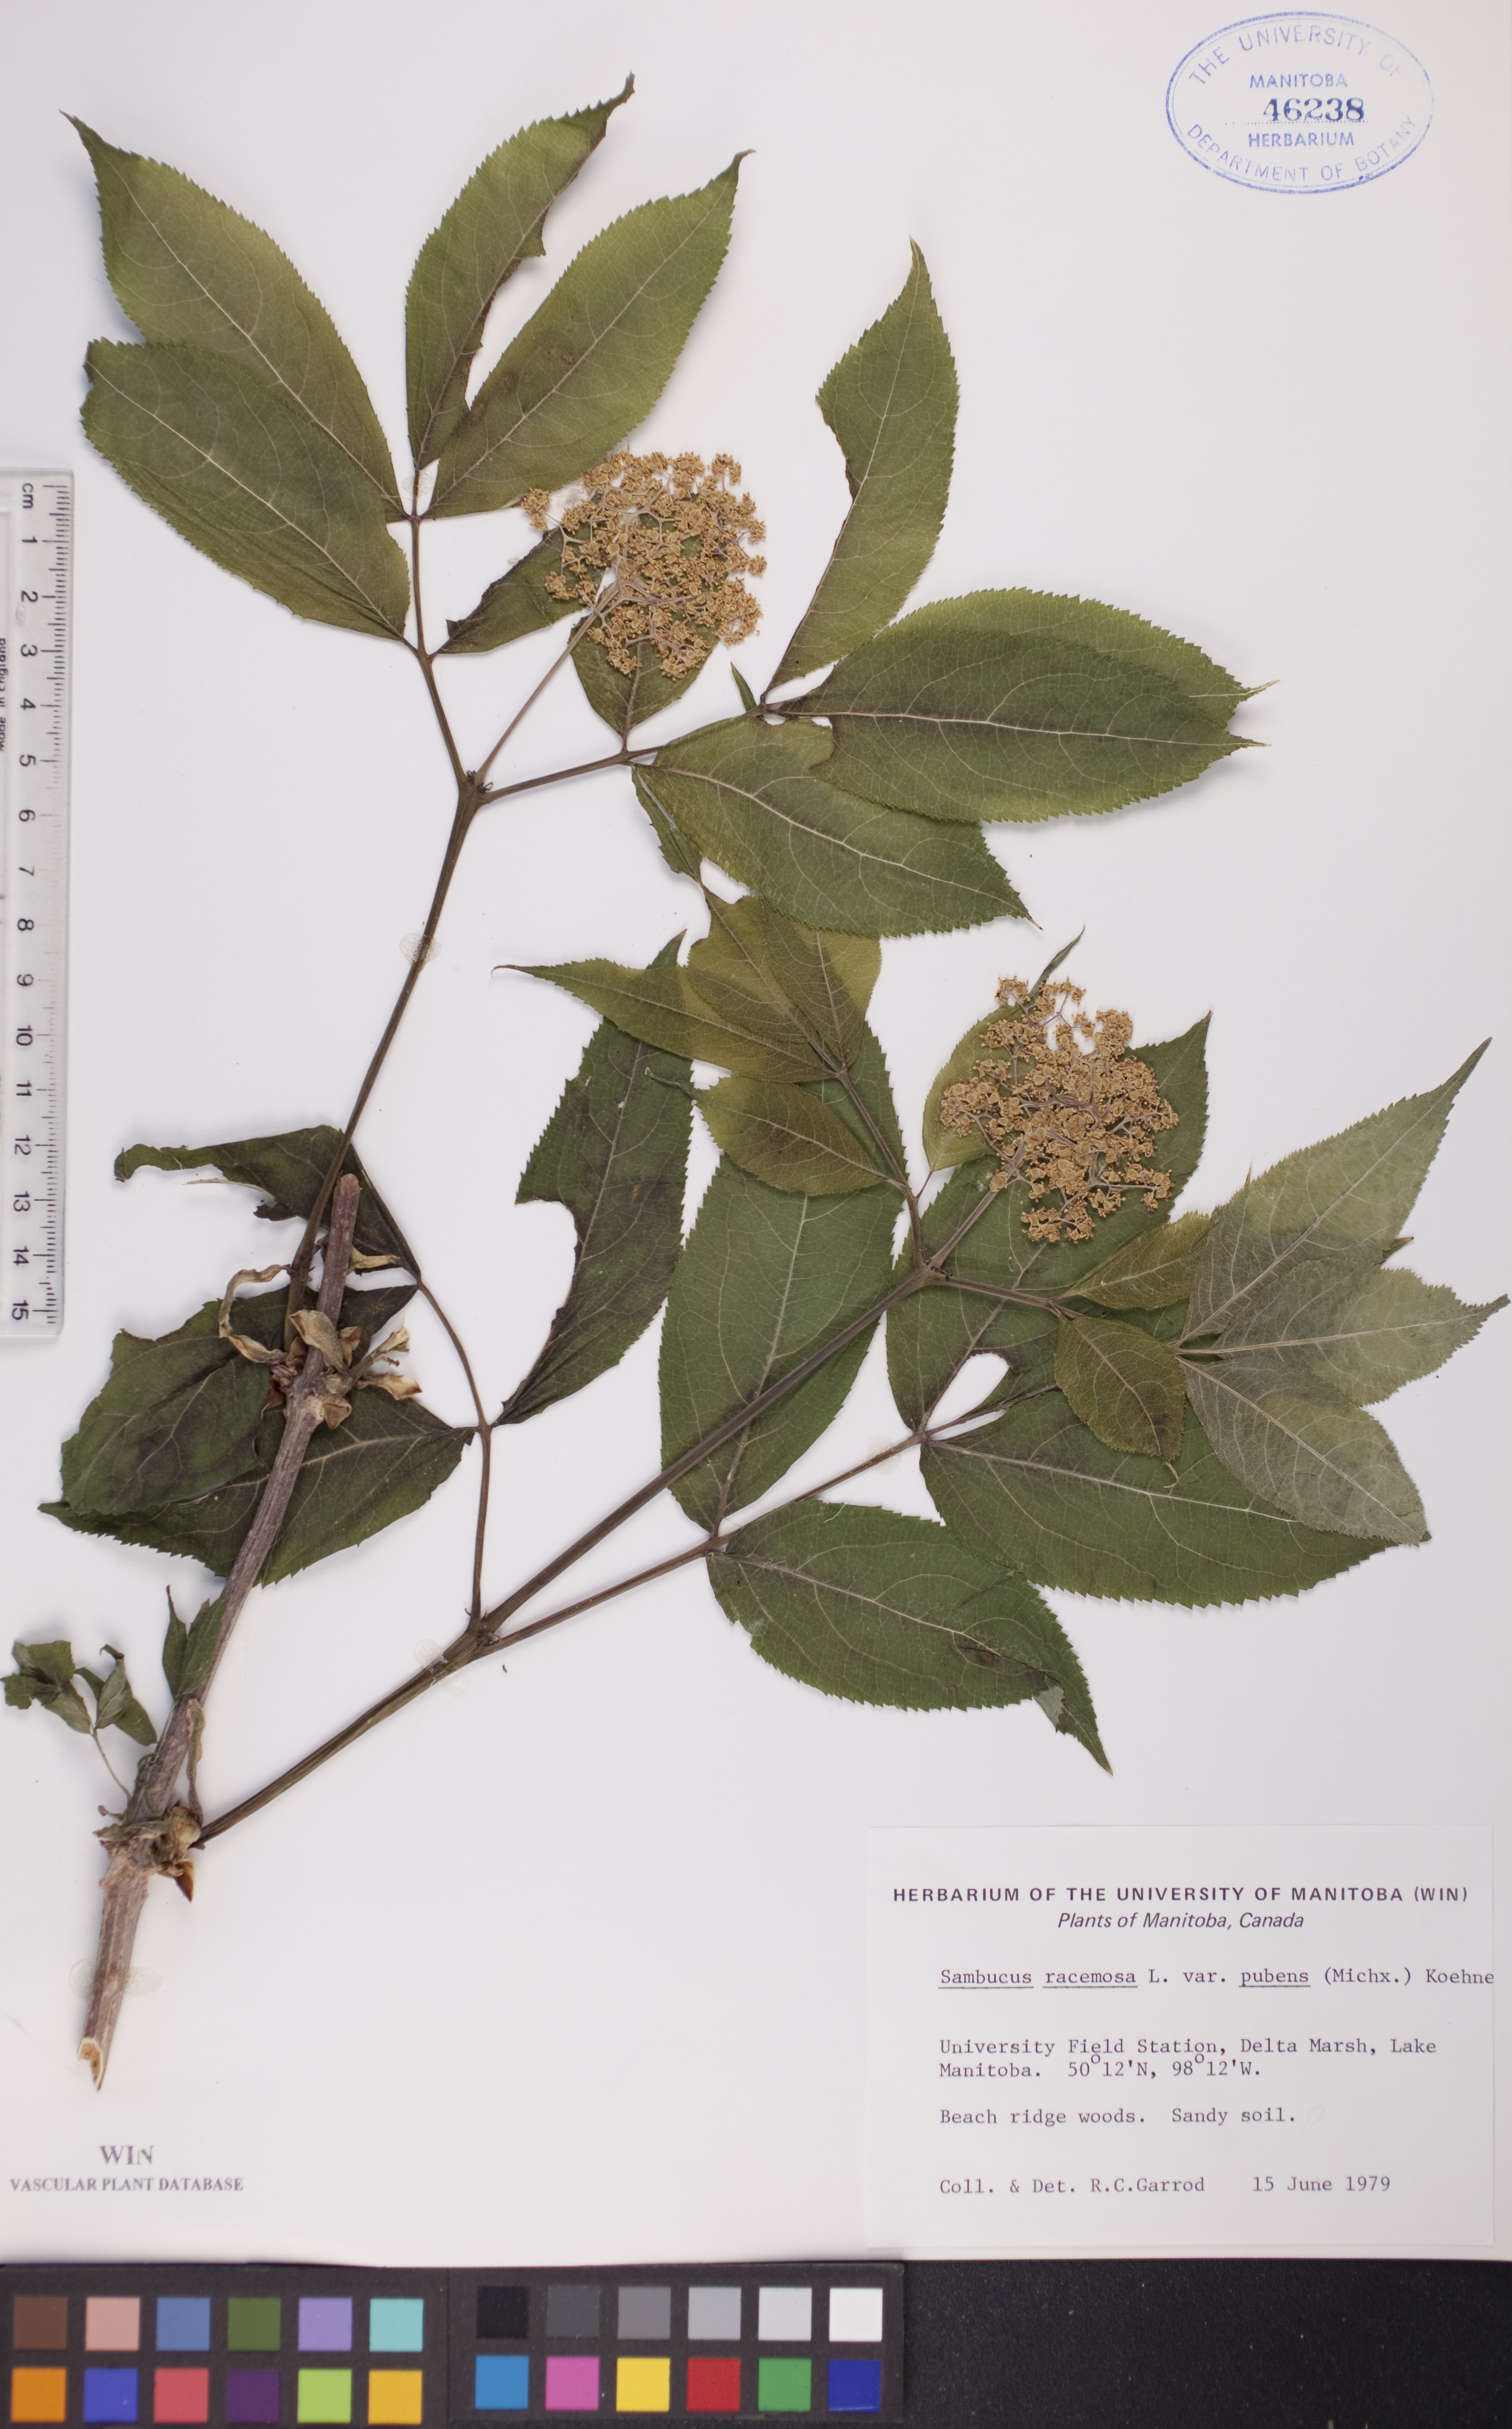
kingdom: Plantae
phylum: Tracheophyta
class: Magnoliopsida
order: Dipsacales
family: Viburnaceae
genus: Sambucus
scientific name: Sambucus racemosa
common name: Red-berried elder
